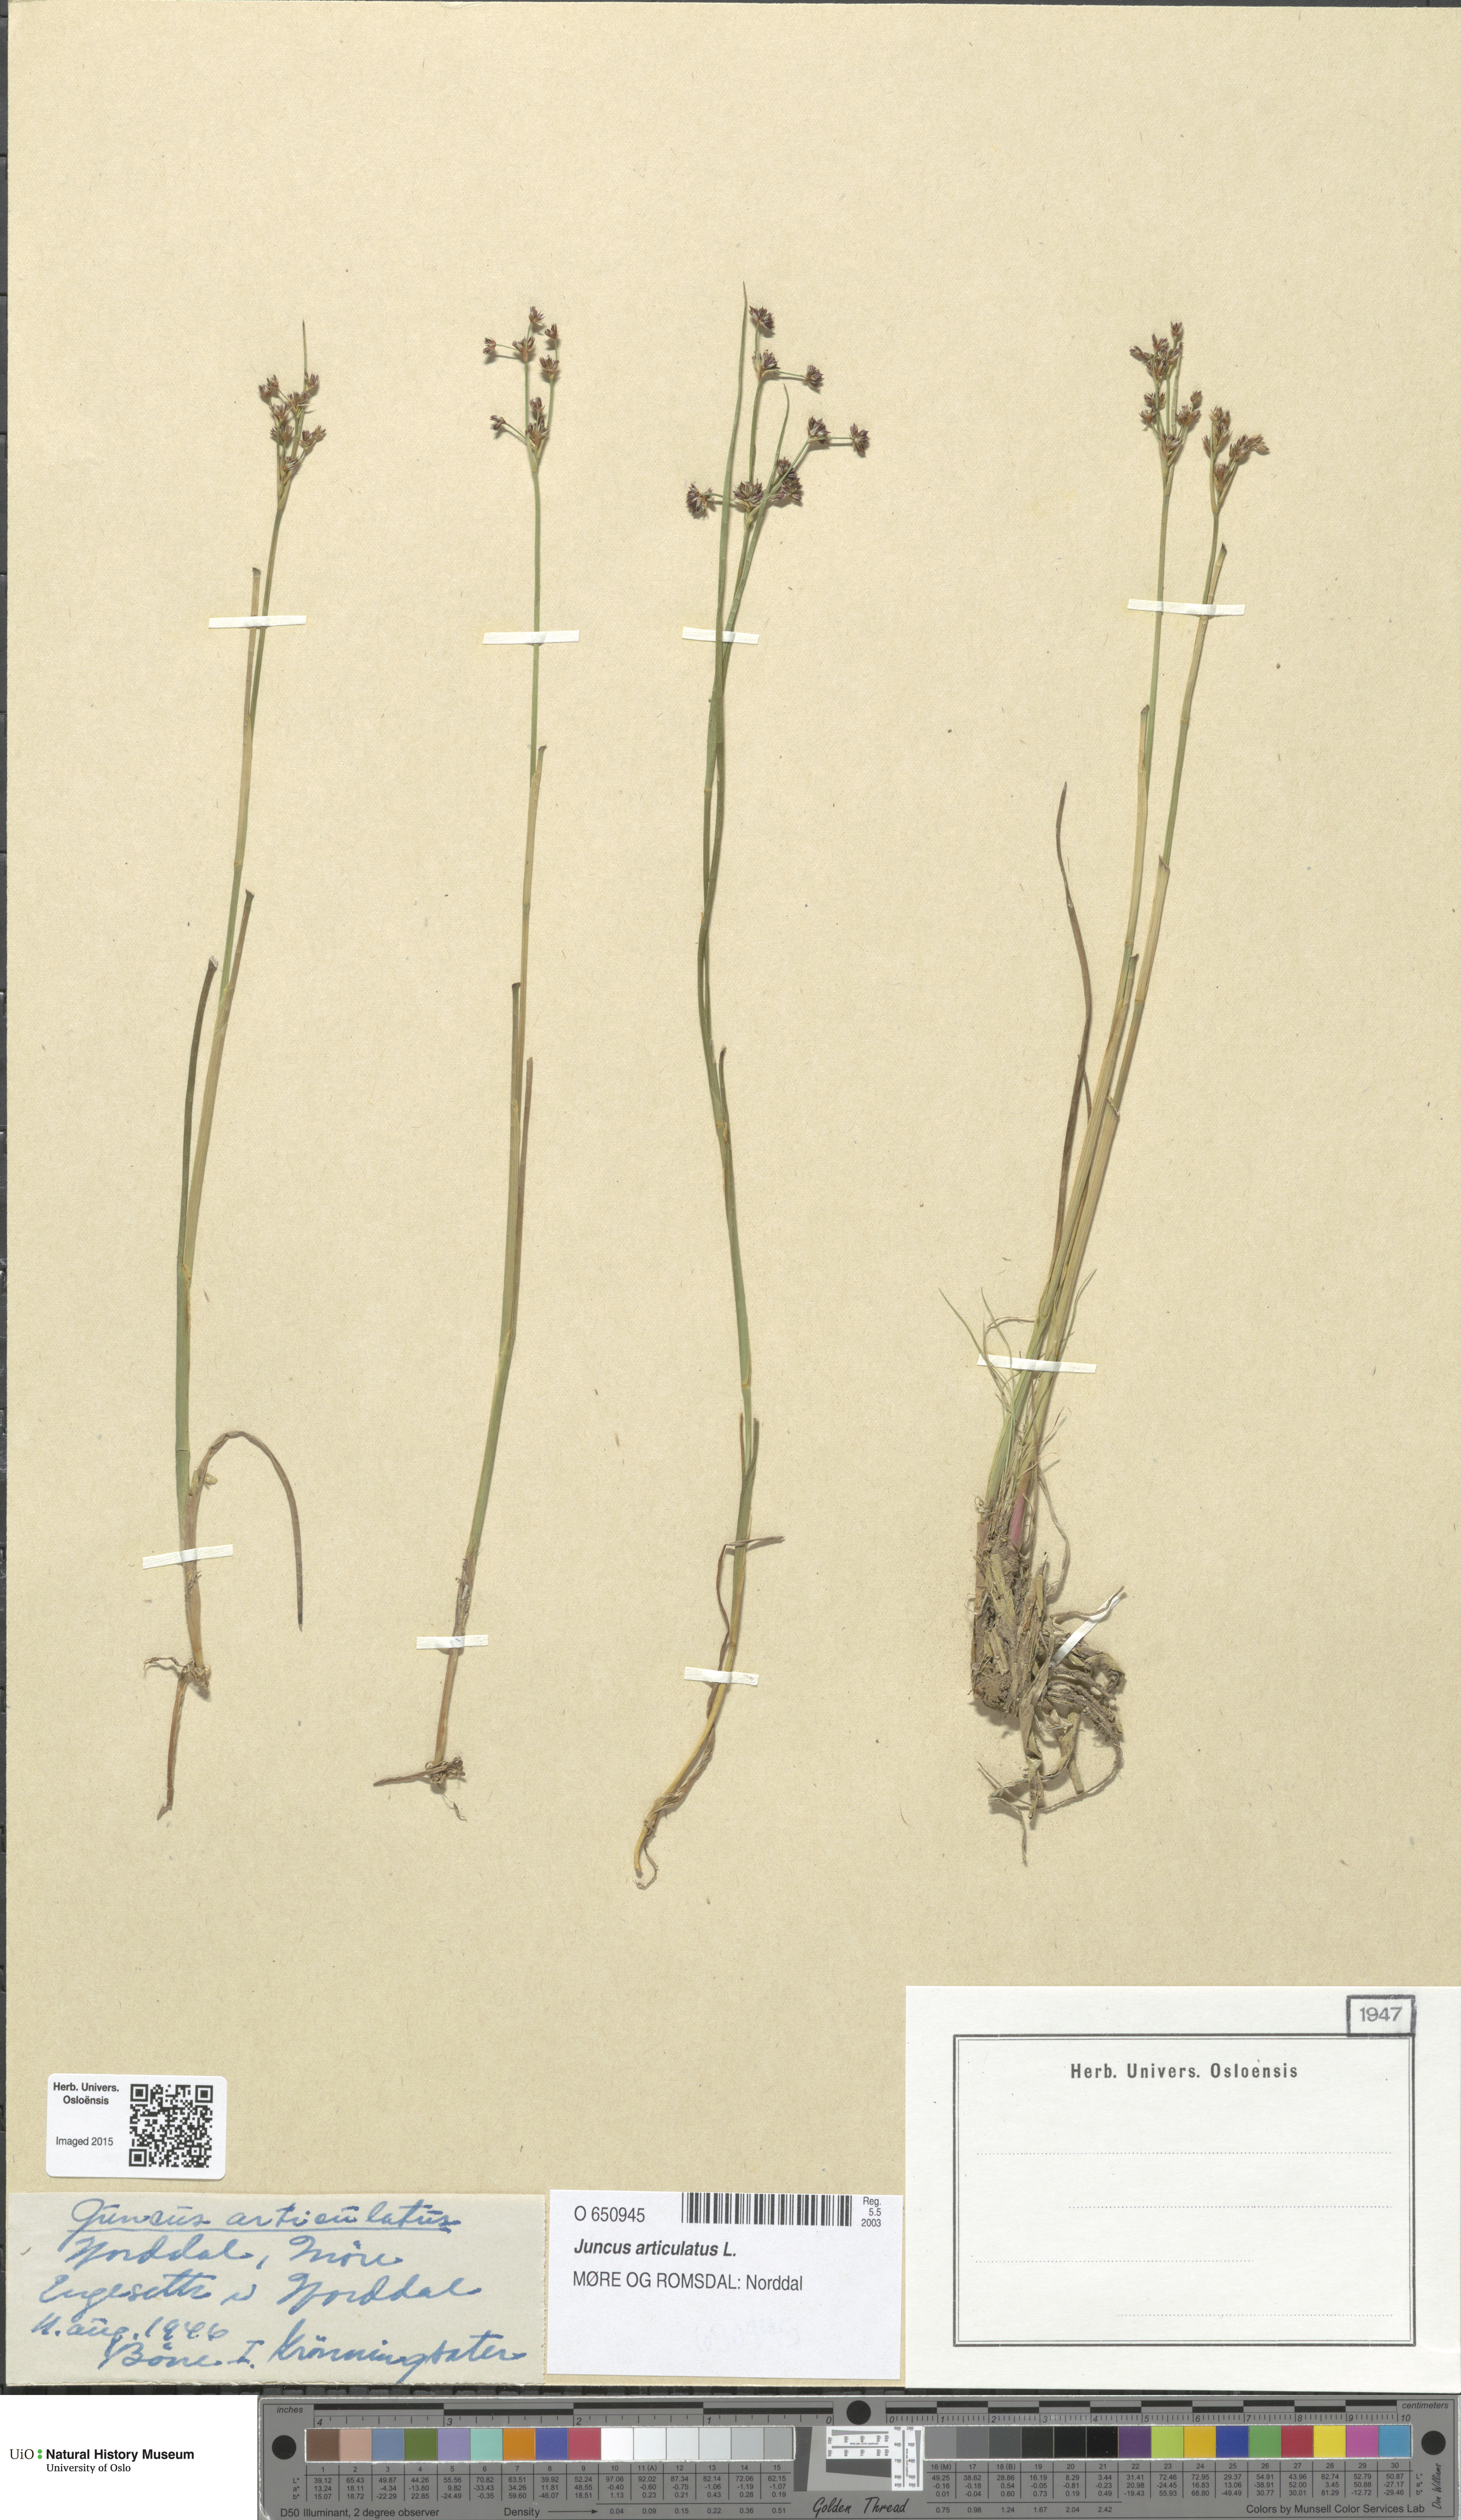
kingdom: Plantae
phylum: Tracheophyta
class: Liliopsida
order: Poales
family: Juncaceae
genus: Juncus
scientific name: Juncus articulatus
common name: Jointed rush
